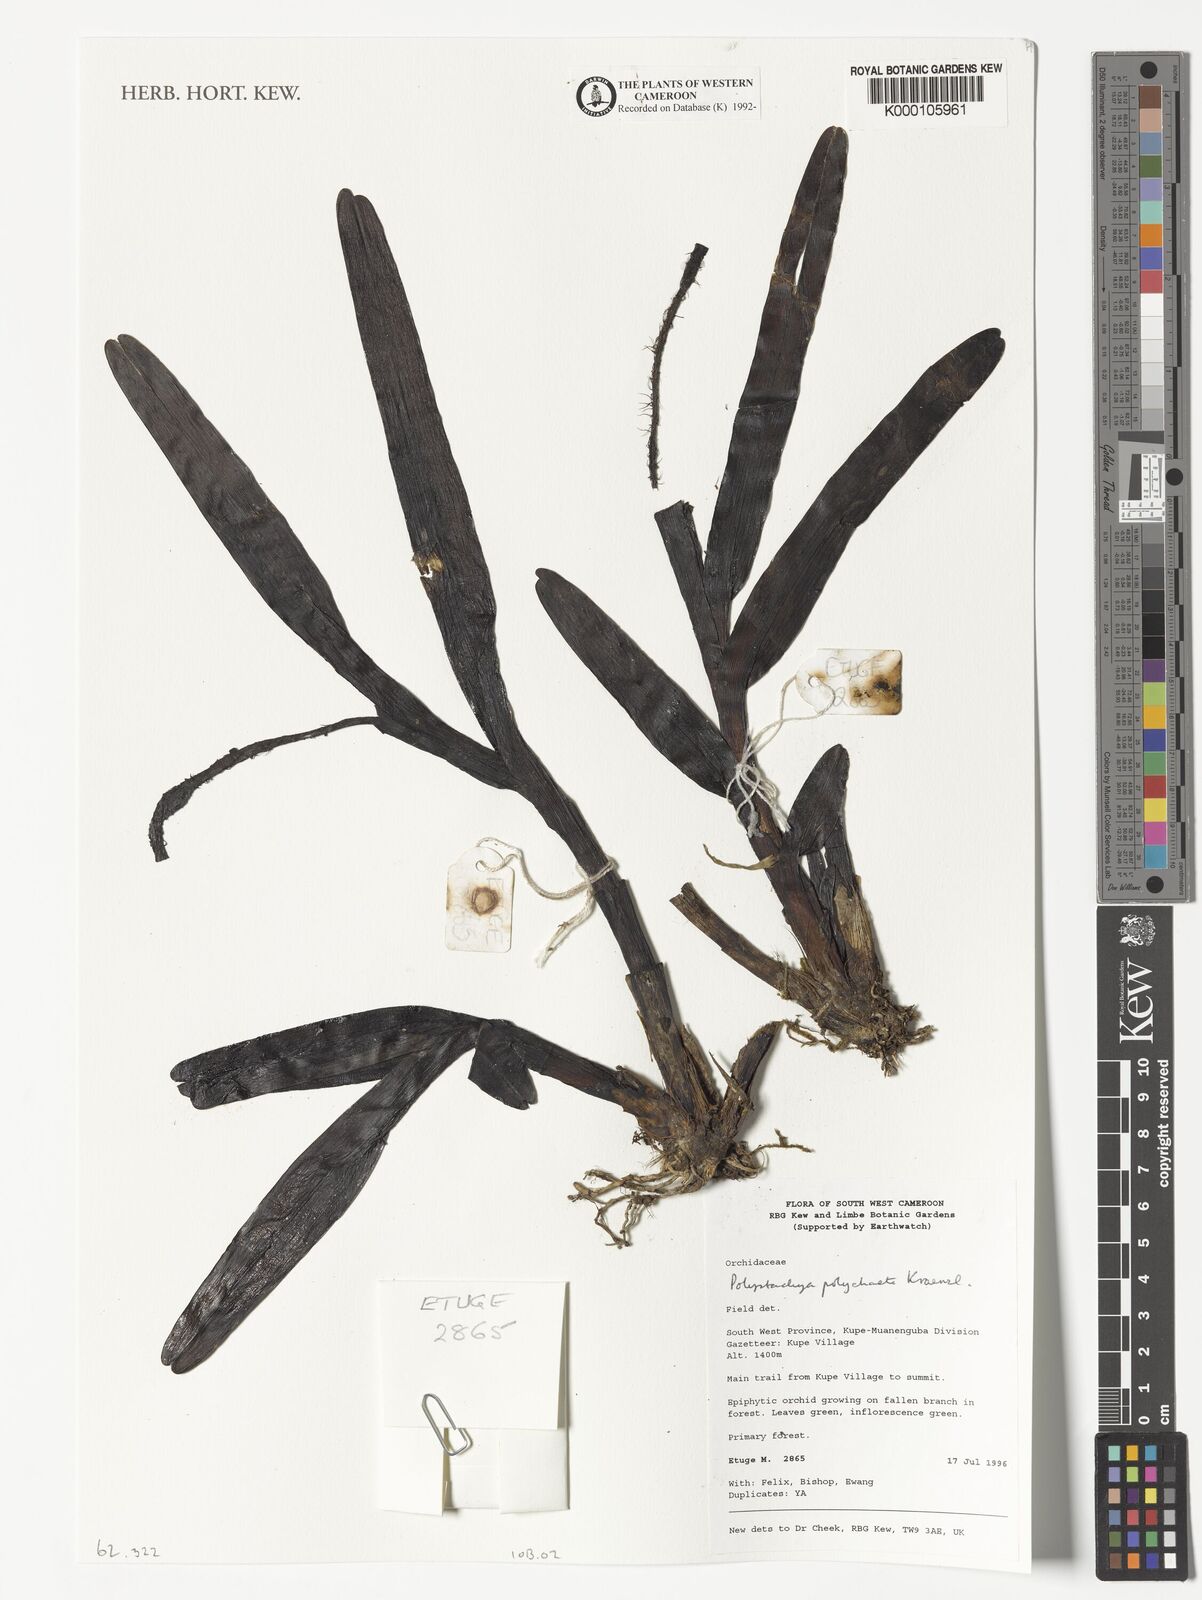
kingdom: Plantae
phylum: Tracheophyta
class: Liliopsida
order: Asparagales
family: Orchidaceae
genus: Polystachya
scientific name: Polystachya polychaete
